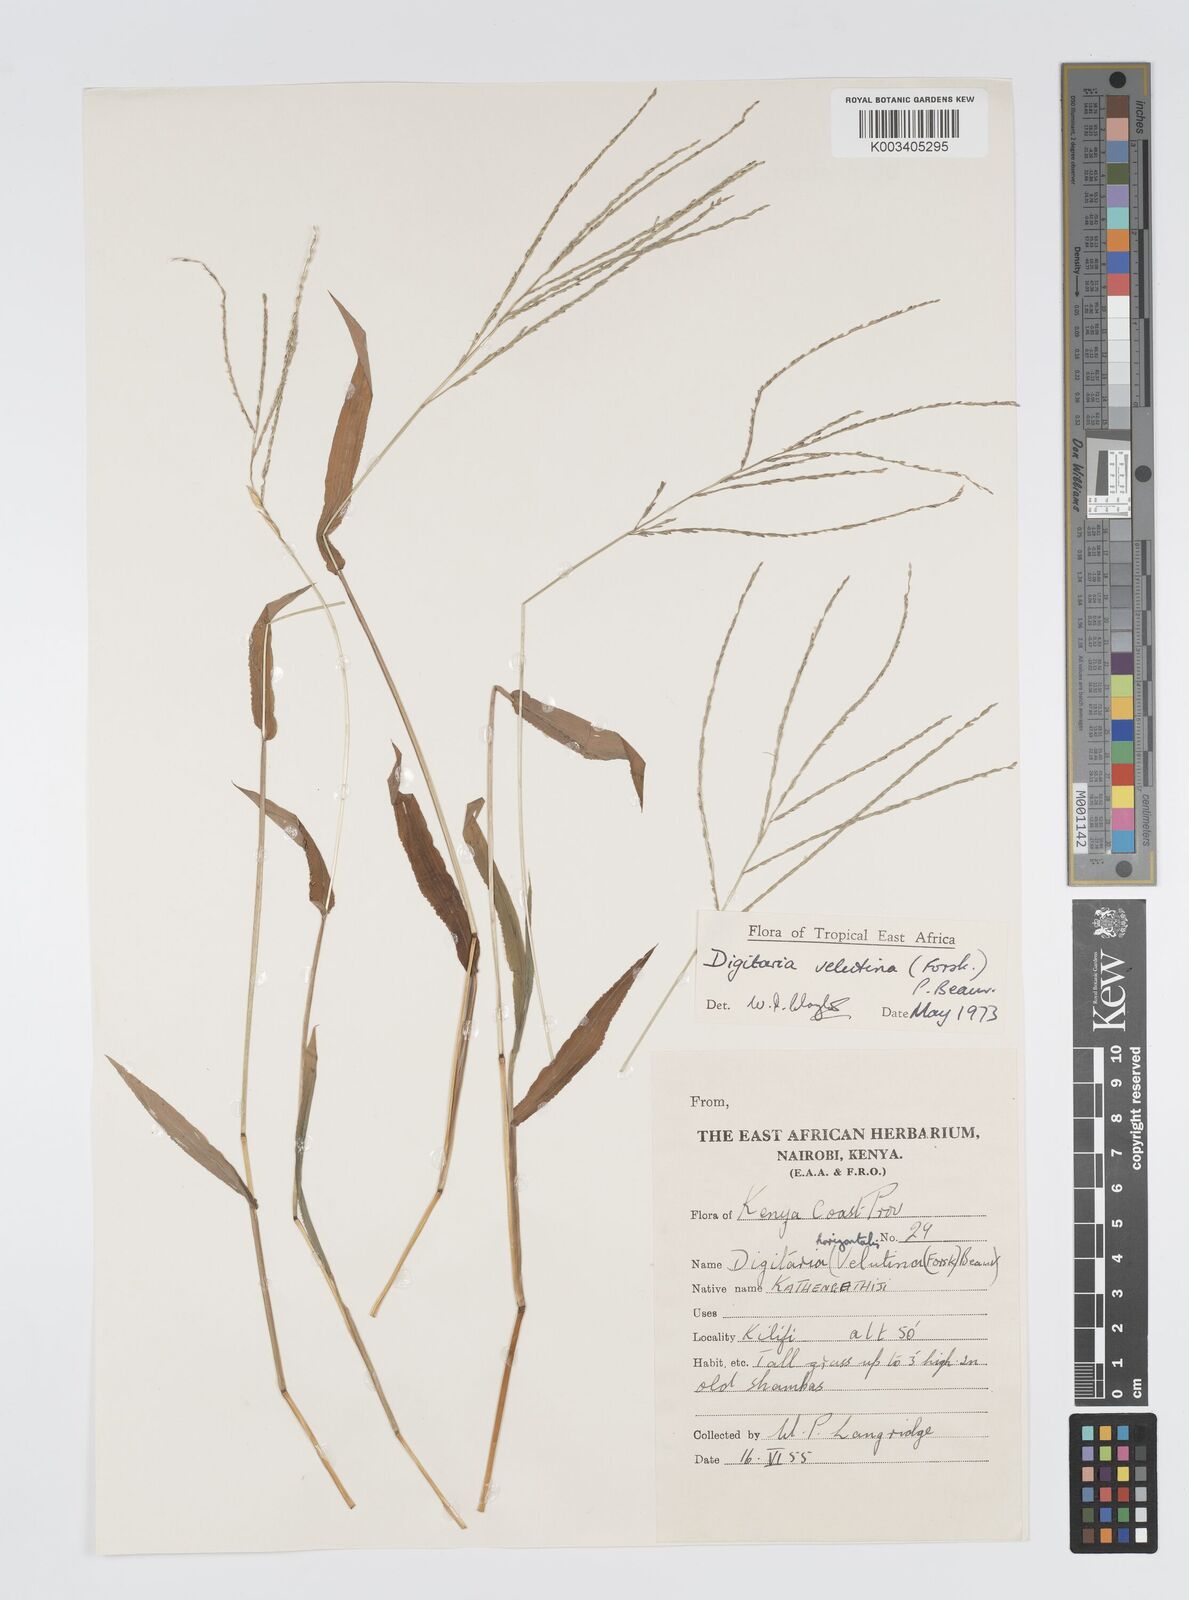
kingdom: Plantae
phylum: Tracheophyta
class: Liliopsida
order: Poales
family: Poaceae
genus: Digitaria
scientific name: Digitaria velutina
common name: Long-plume finger grass
